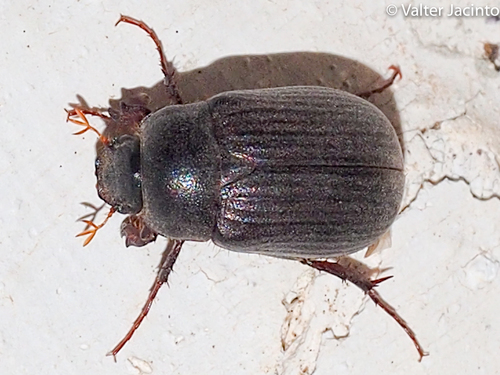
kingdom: Animalia
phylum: Arthropoda
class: Insecta
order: Coleoptera
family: Scarabaeidae
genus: Euserica
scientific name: Euserica
